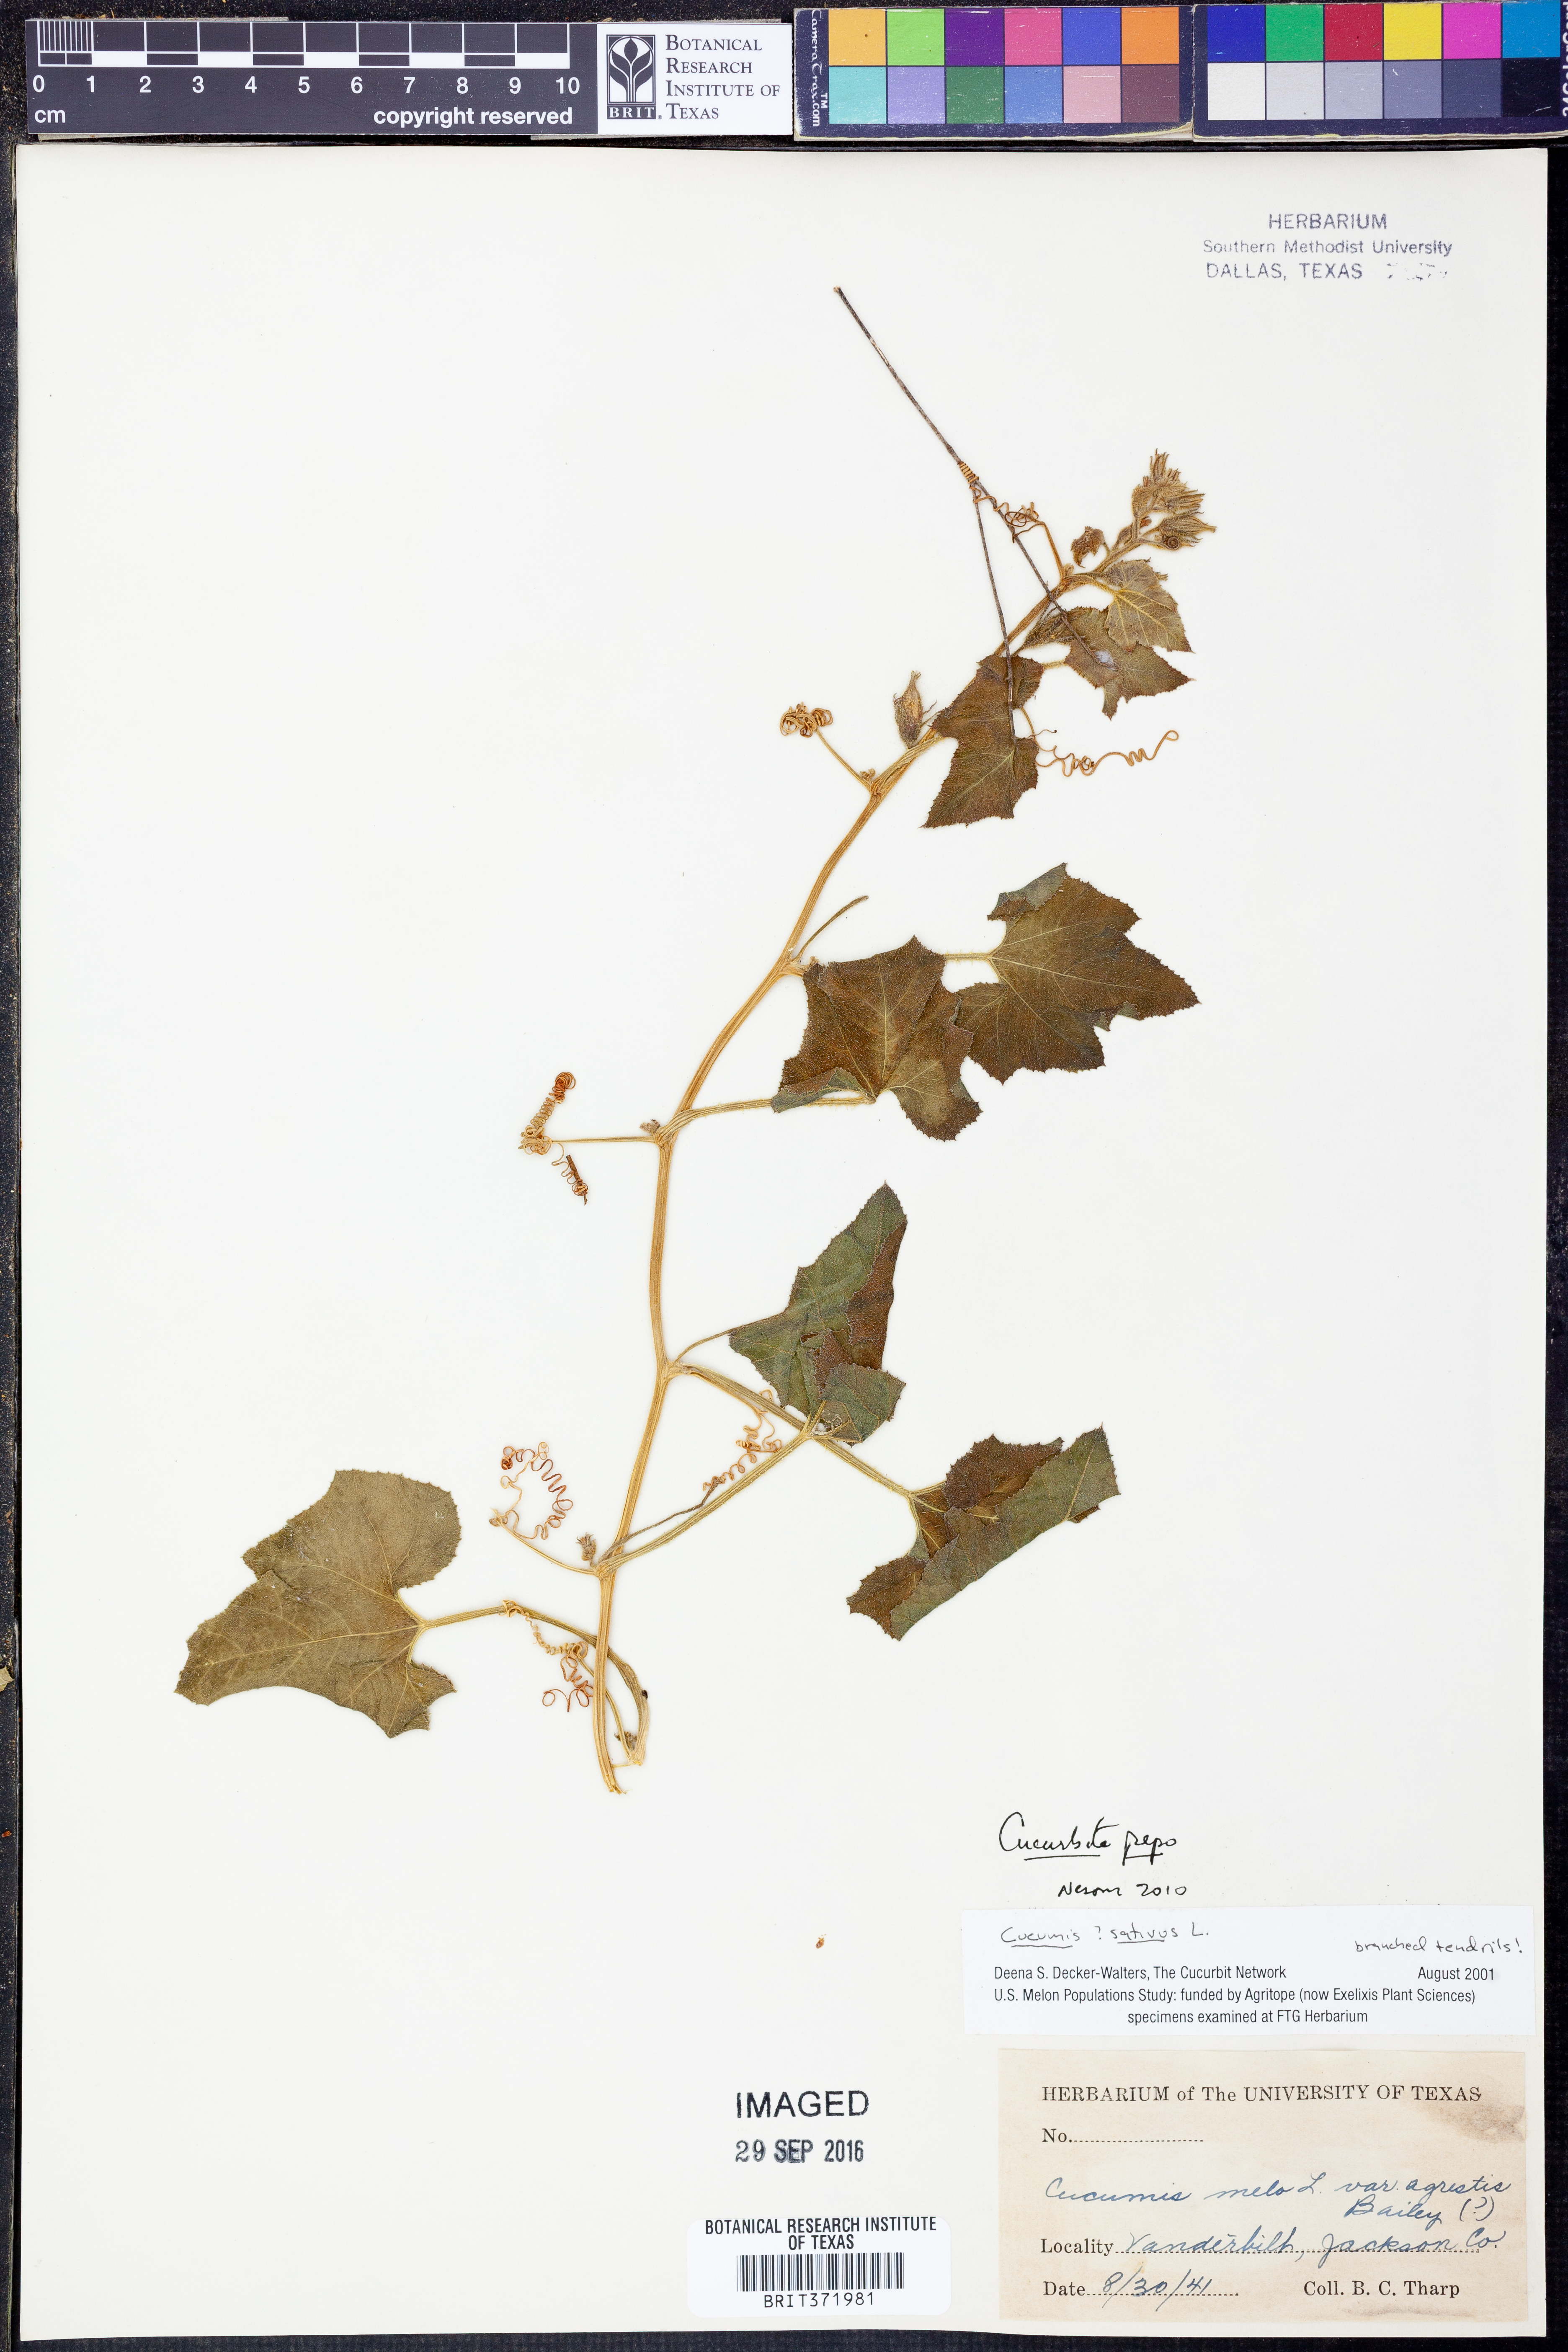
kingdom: Plantae
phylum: Tracheophyta
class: Magnoliopsida
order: Cucurbitales
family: Cucurbitaceae
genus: Cucurbita
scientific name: Cucurbita pepo
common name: Marrow
